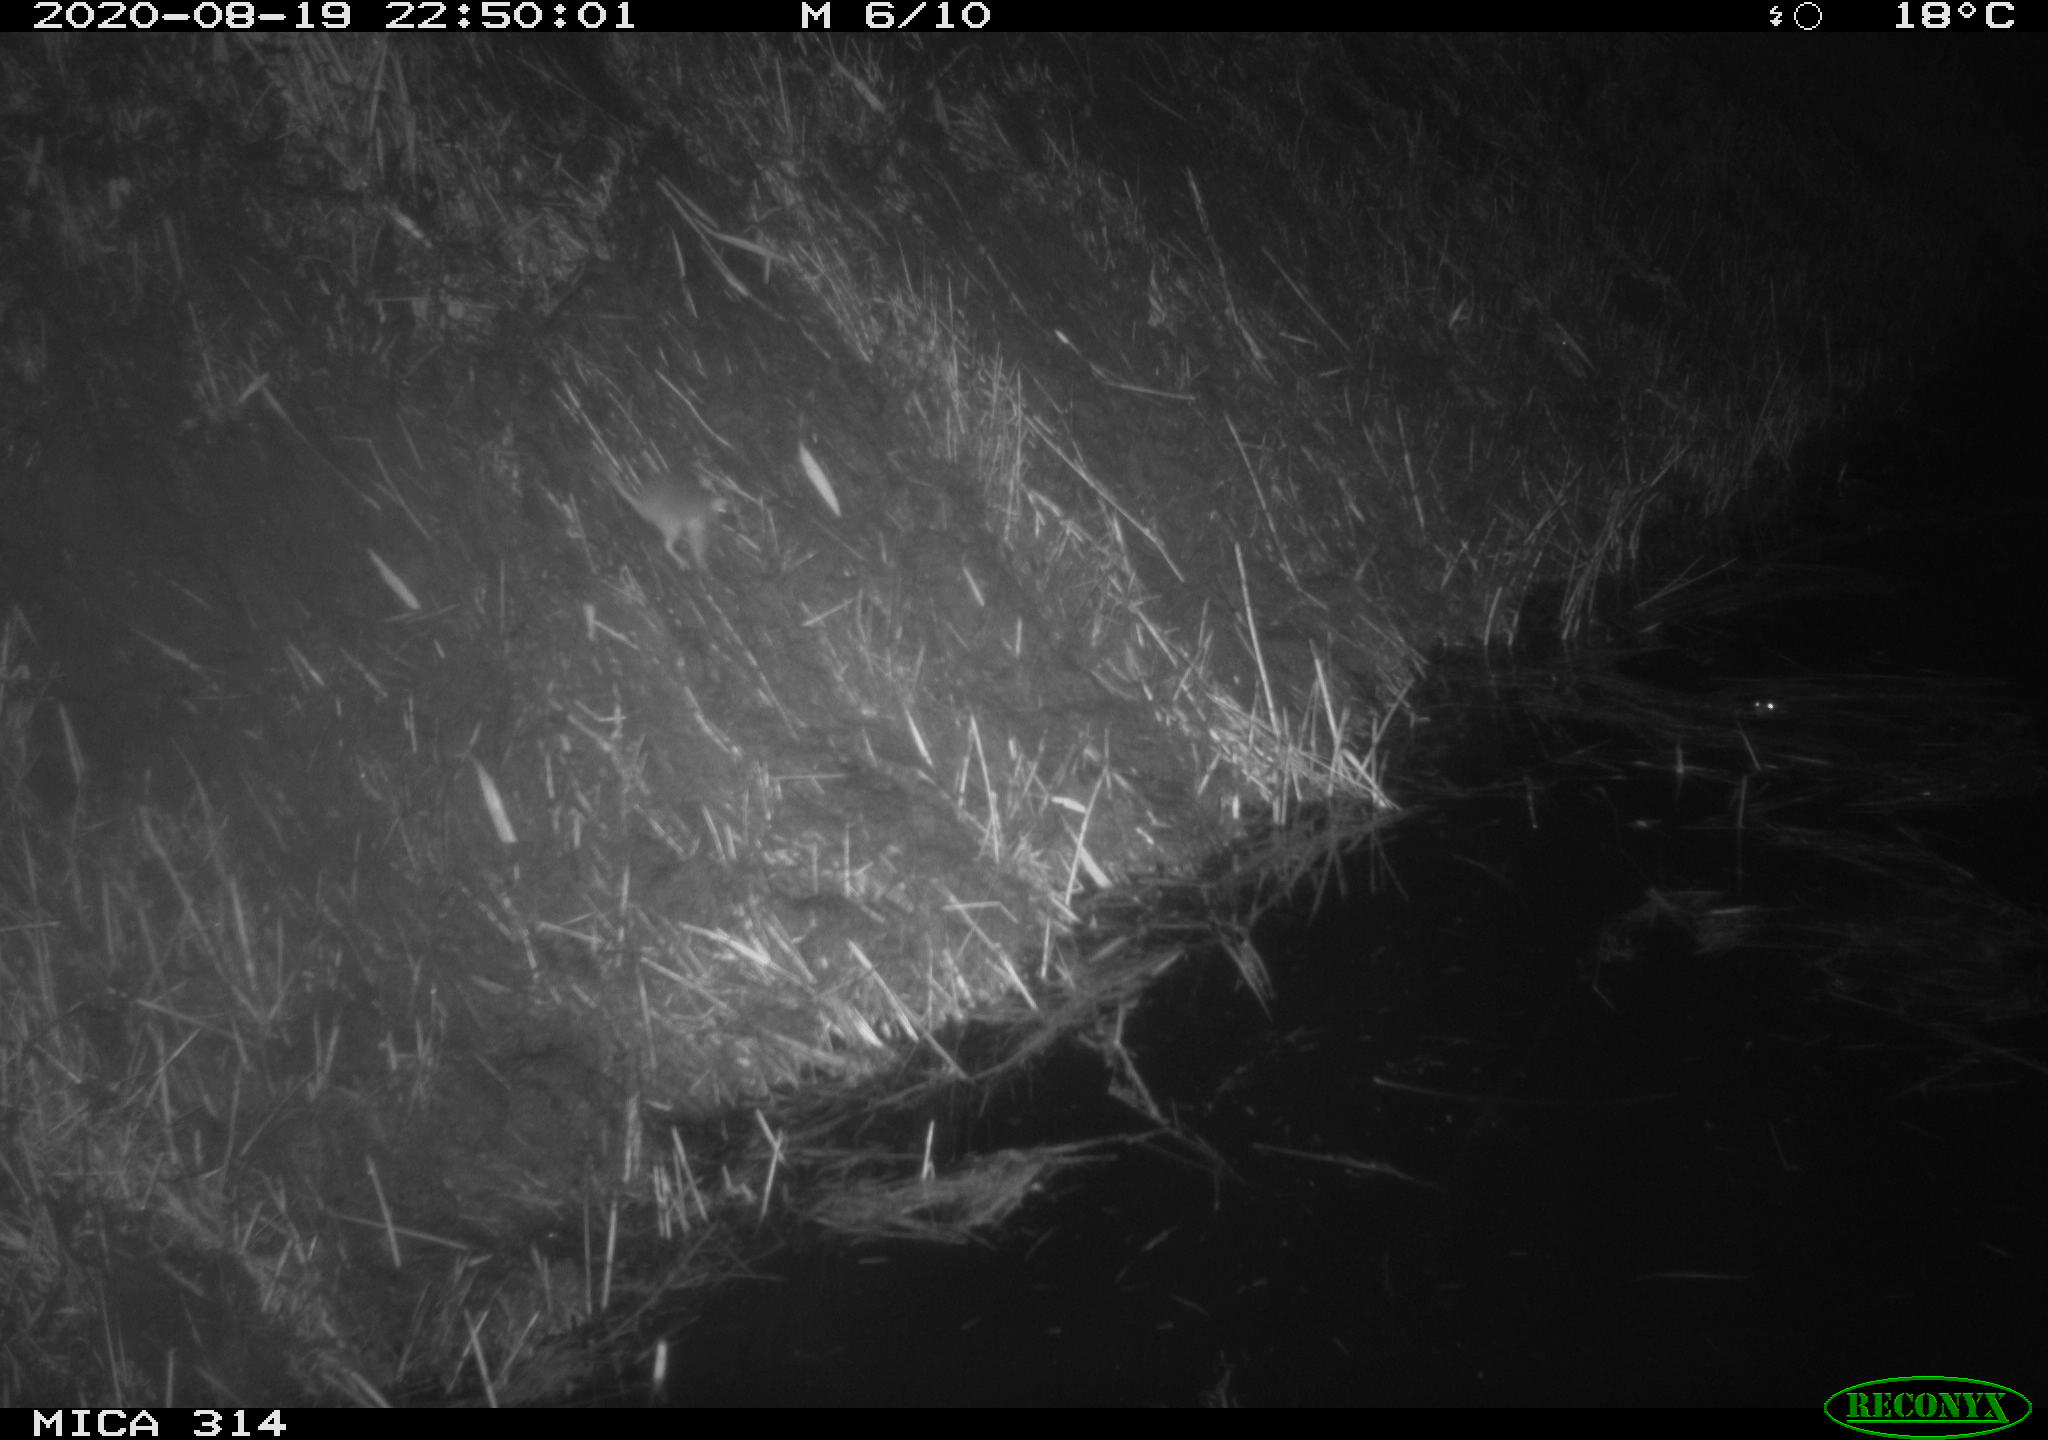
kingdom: Animalia
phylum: Chordata
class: Mammalia
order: Rodentia
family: Muridae
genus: Rattus
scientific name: Rattus norvegicus
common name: Brown rat
